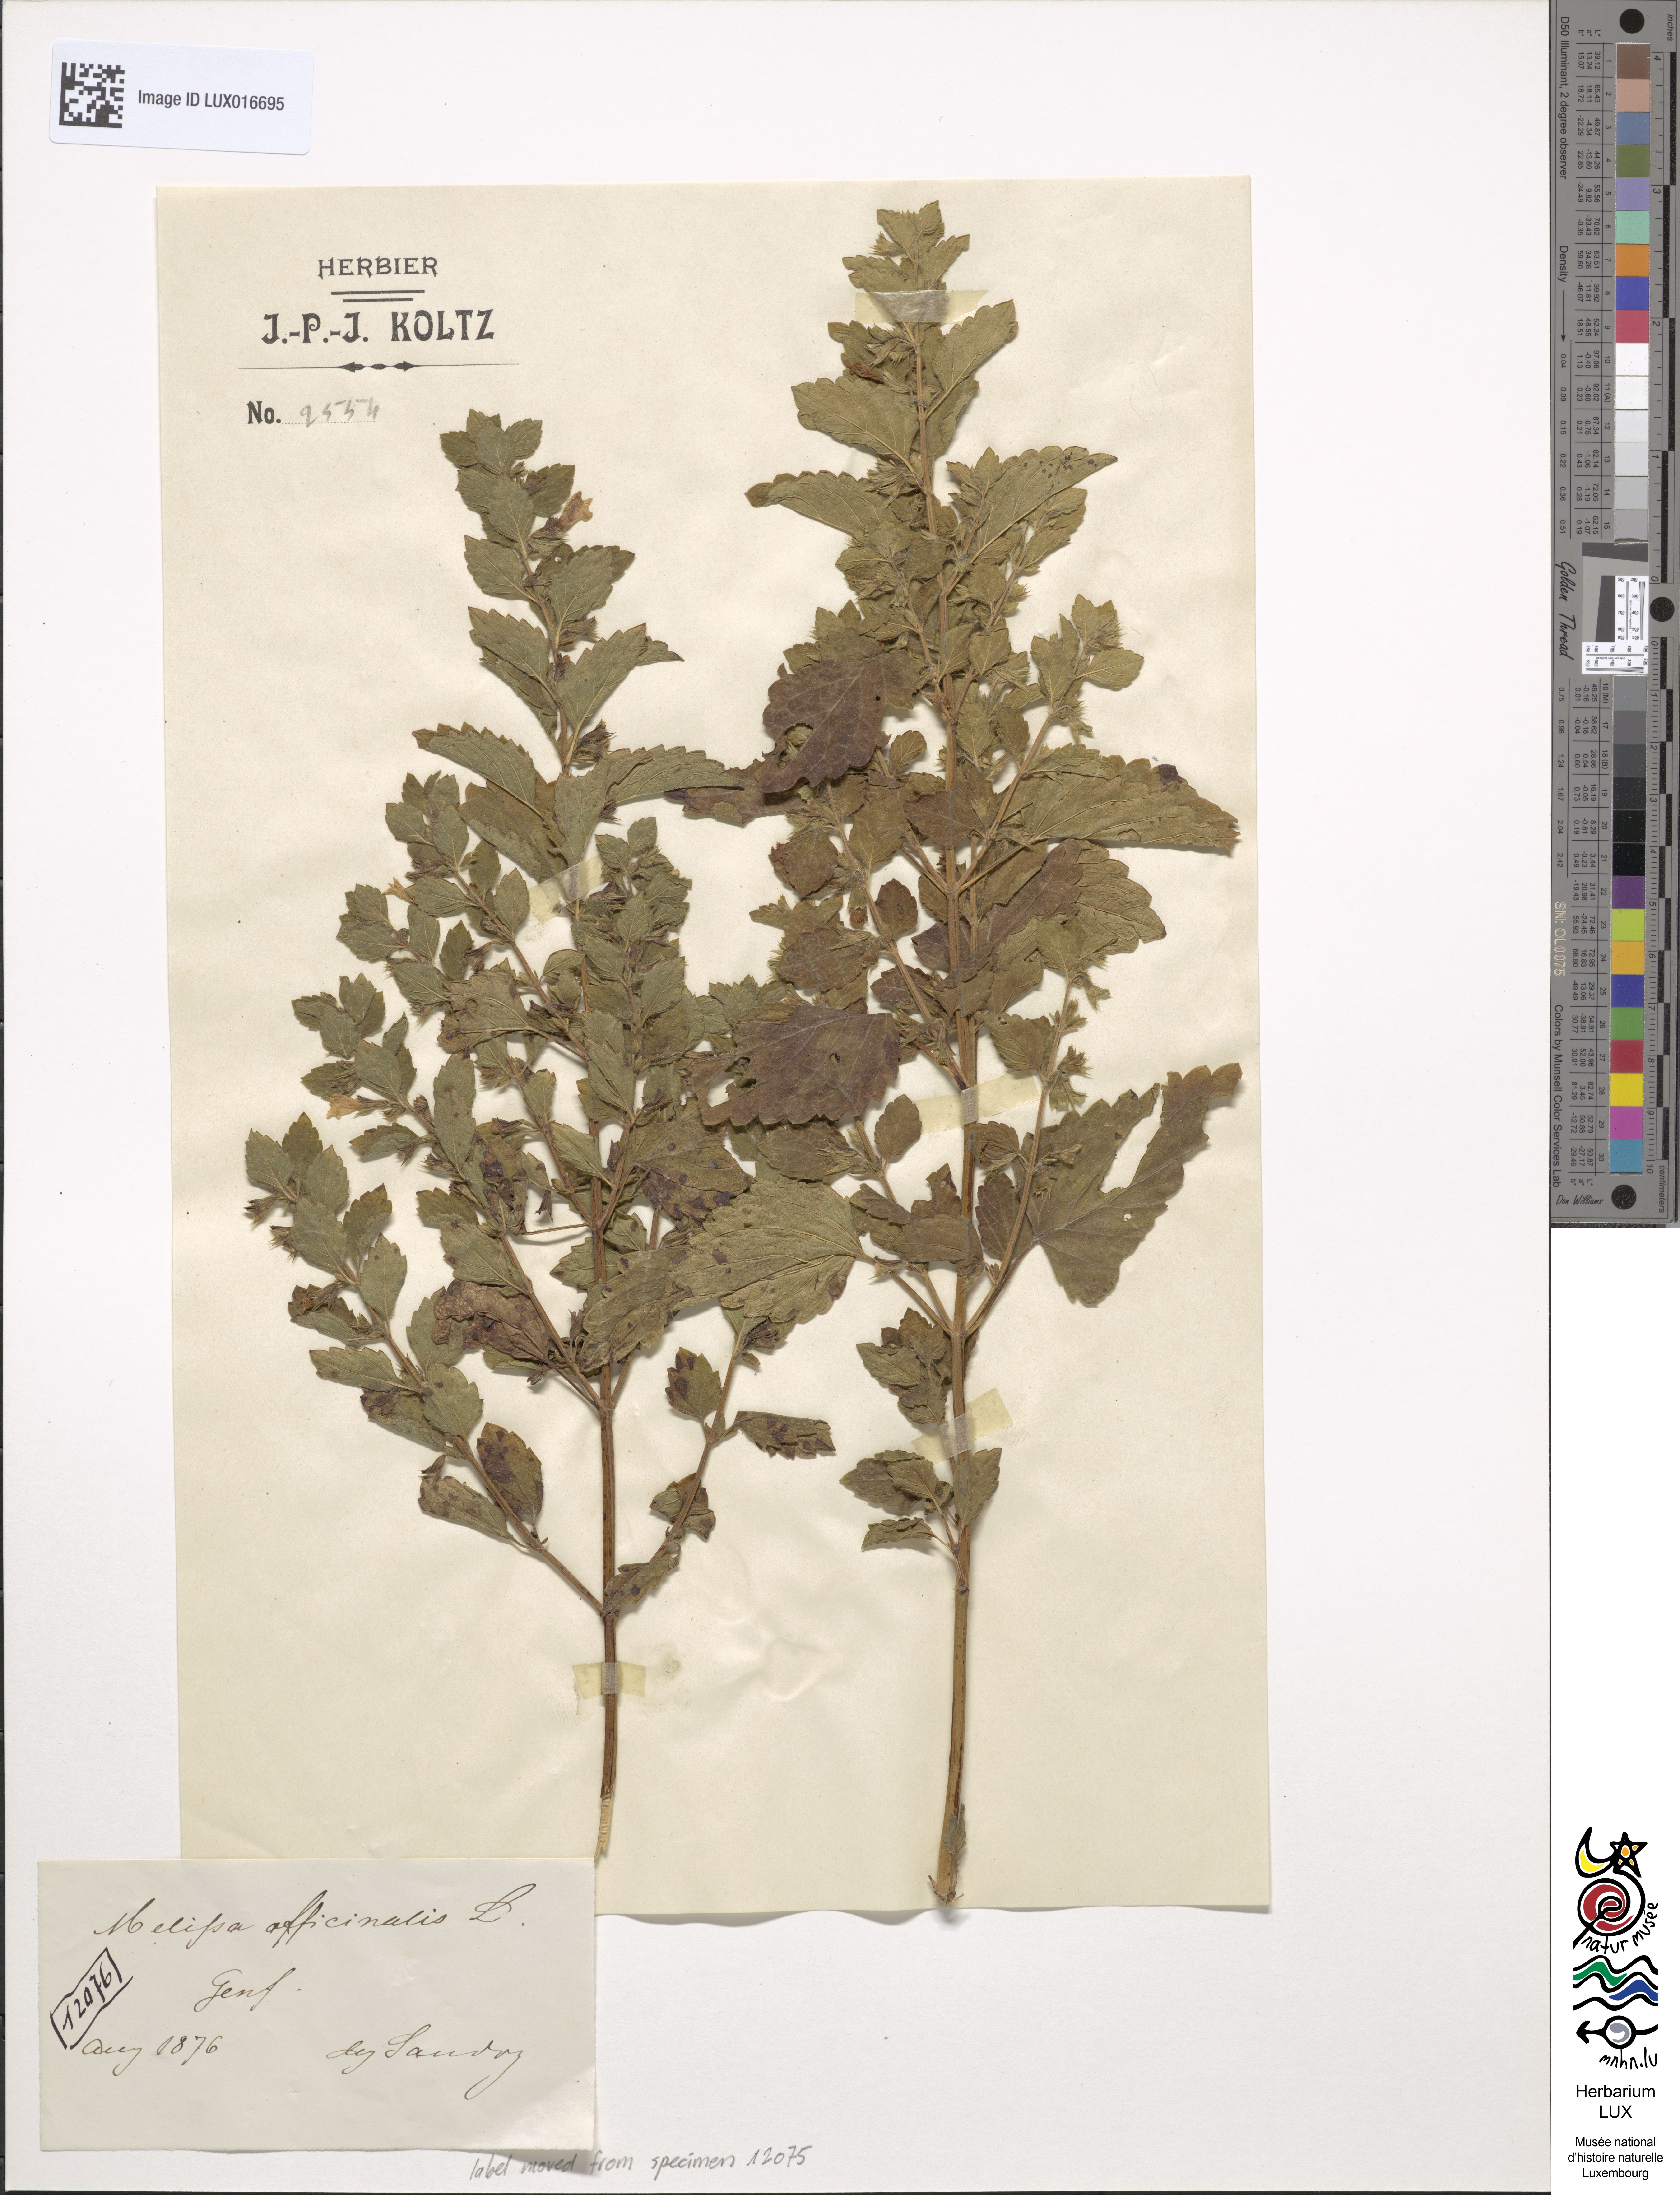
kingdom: Plantae
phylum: Tracheophyta
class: Magnoliopsida
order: Lamiales
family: Lamiaceae
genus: Melissa
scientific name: Melissa officinalis
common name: Balm
